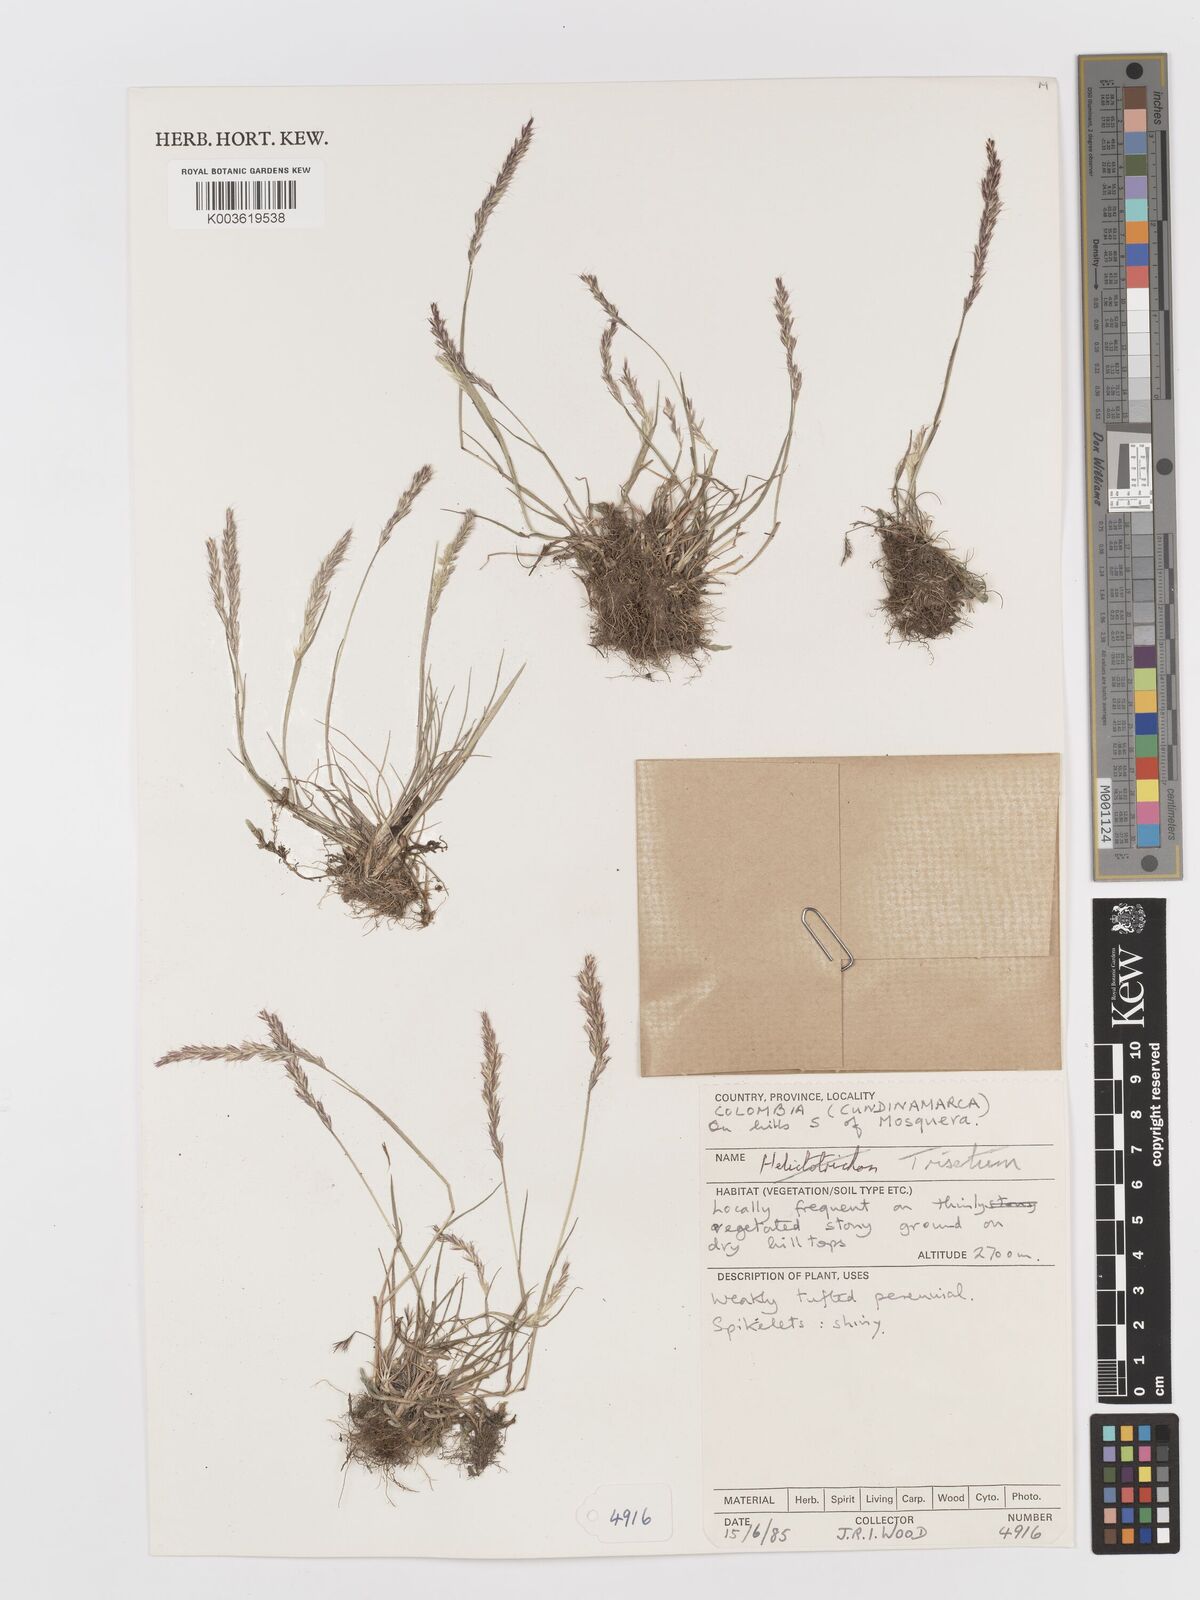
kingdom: Plantae
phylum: Tracheophyta
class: Liliopsida
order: Poales
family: Poaceae
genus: Peyritschia
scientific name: Peyritschia deyeuxioides
